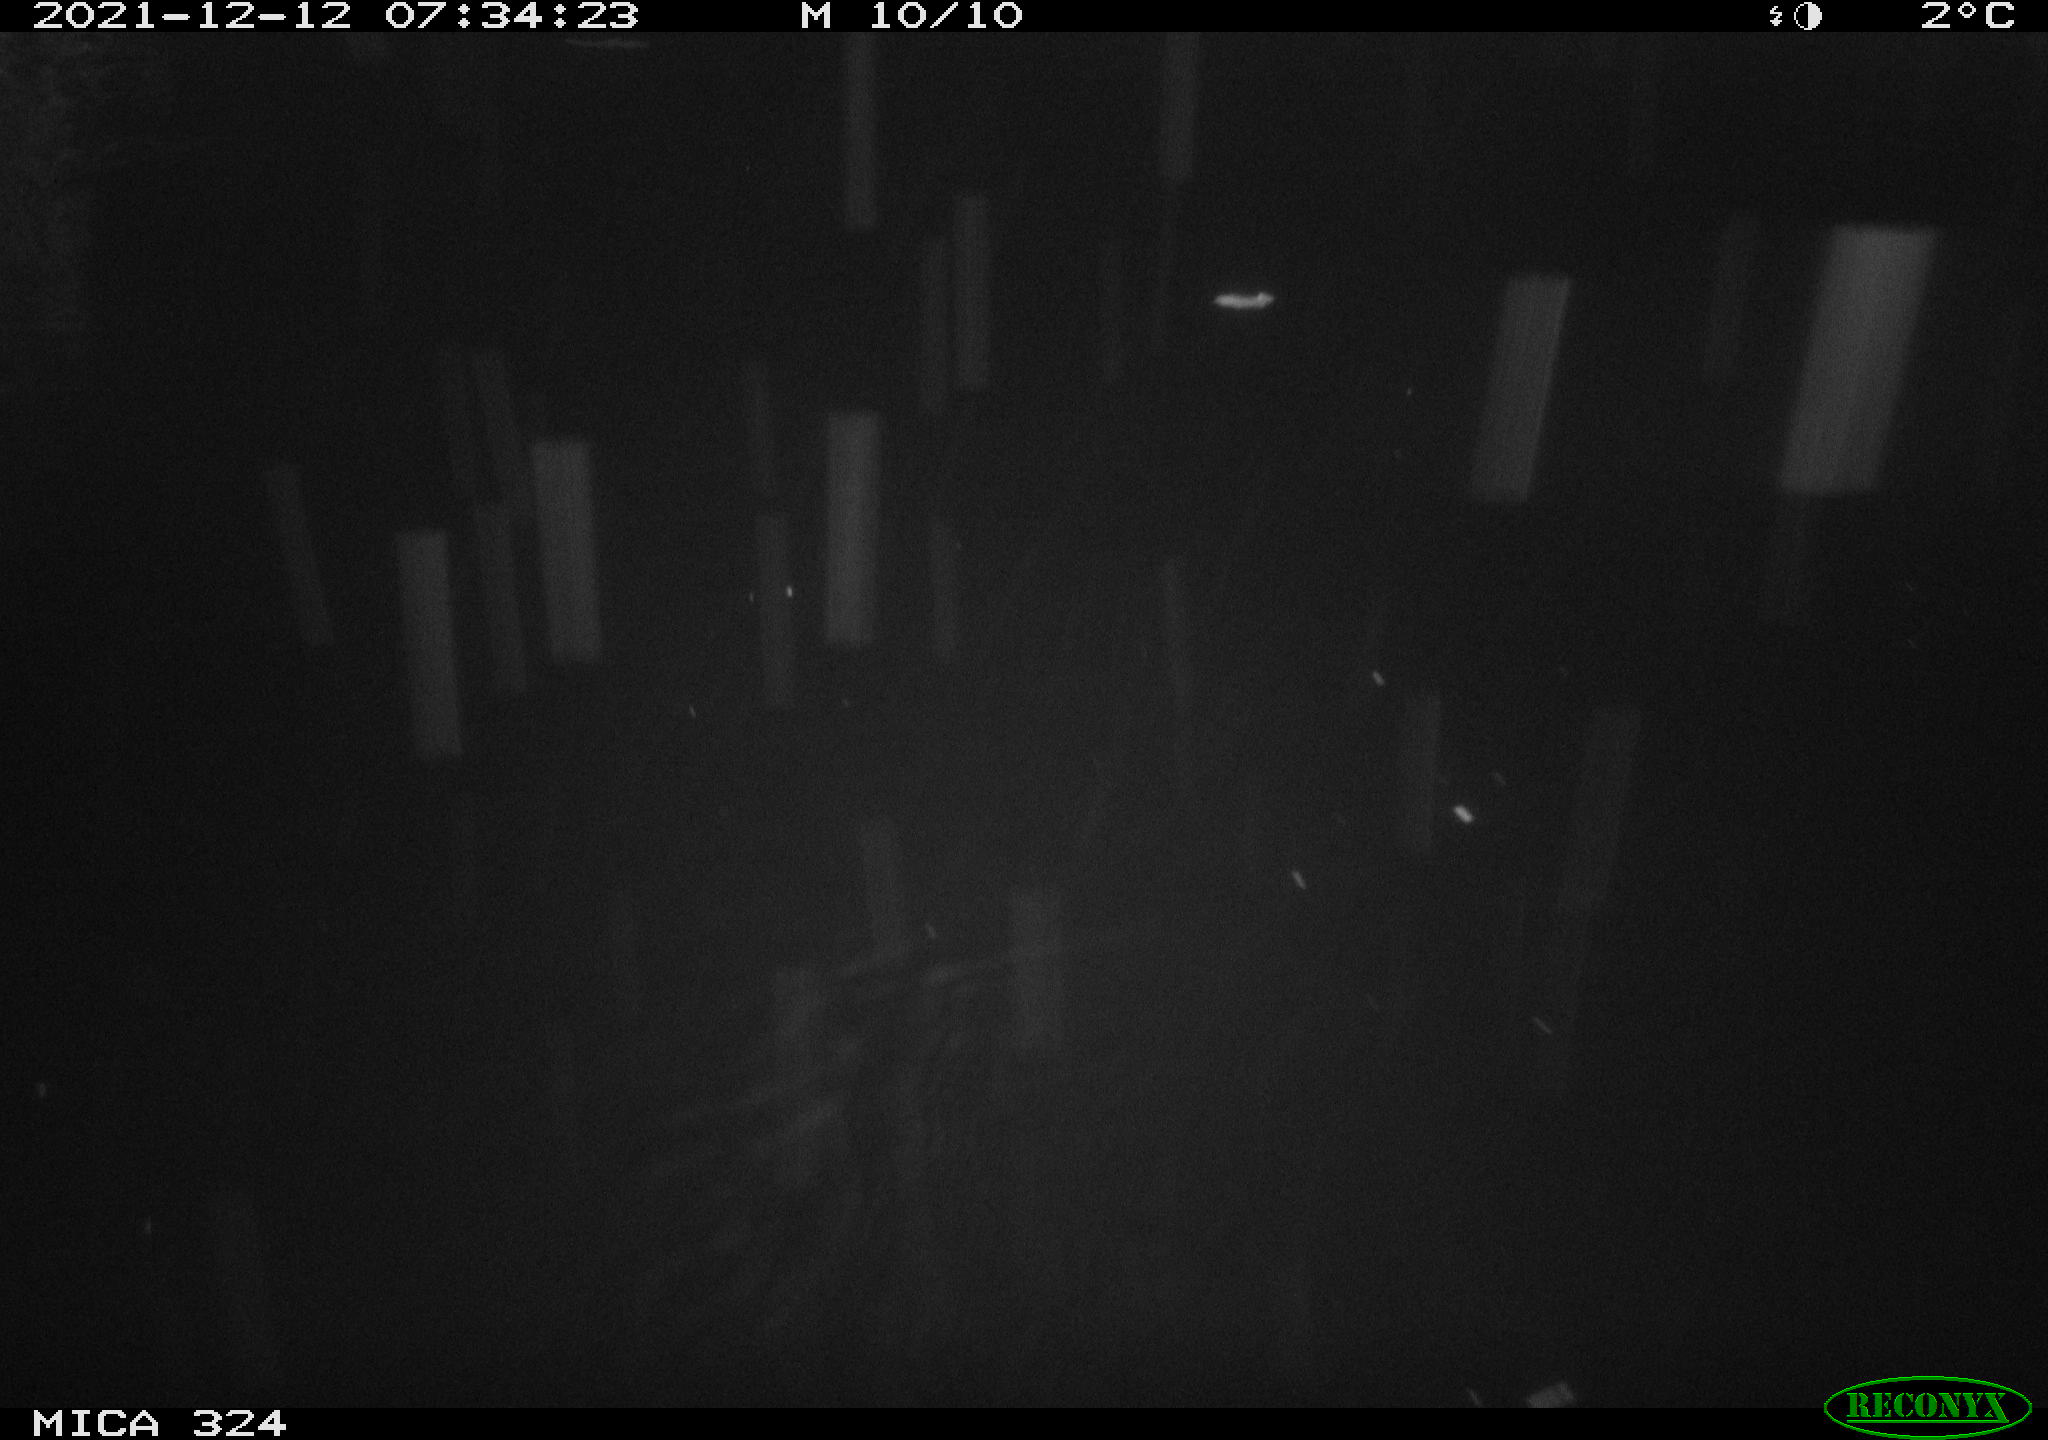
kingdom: Animalia
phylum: Chordata
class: Mammalia
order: Rodentia
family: Cricetidae
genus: Ondatra
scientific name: Ondatra zibethicus
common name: Muskrat
